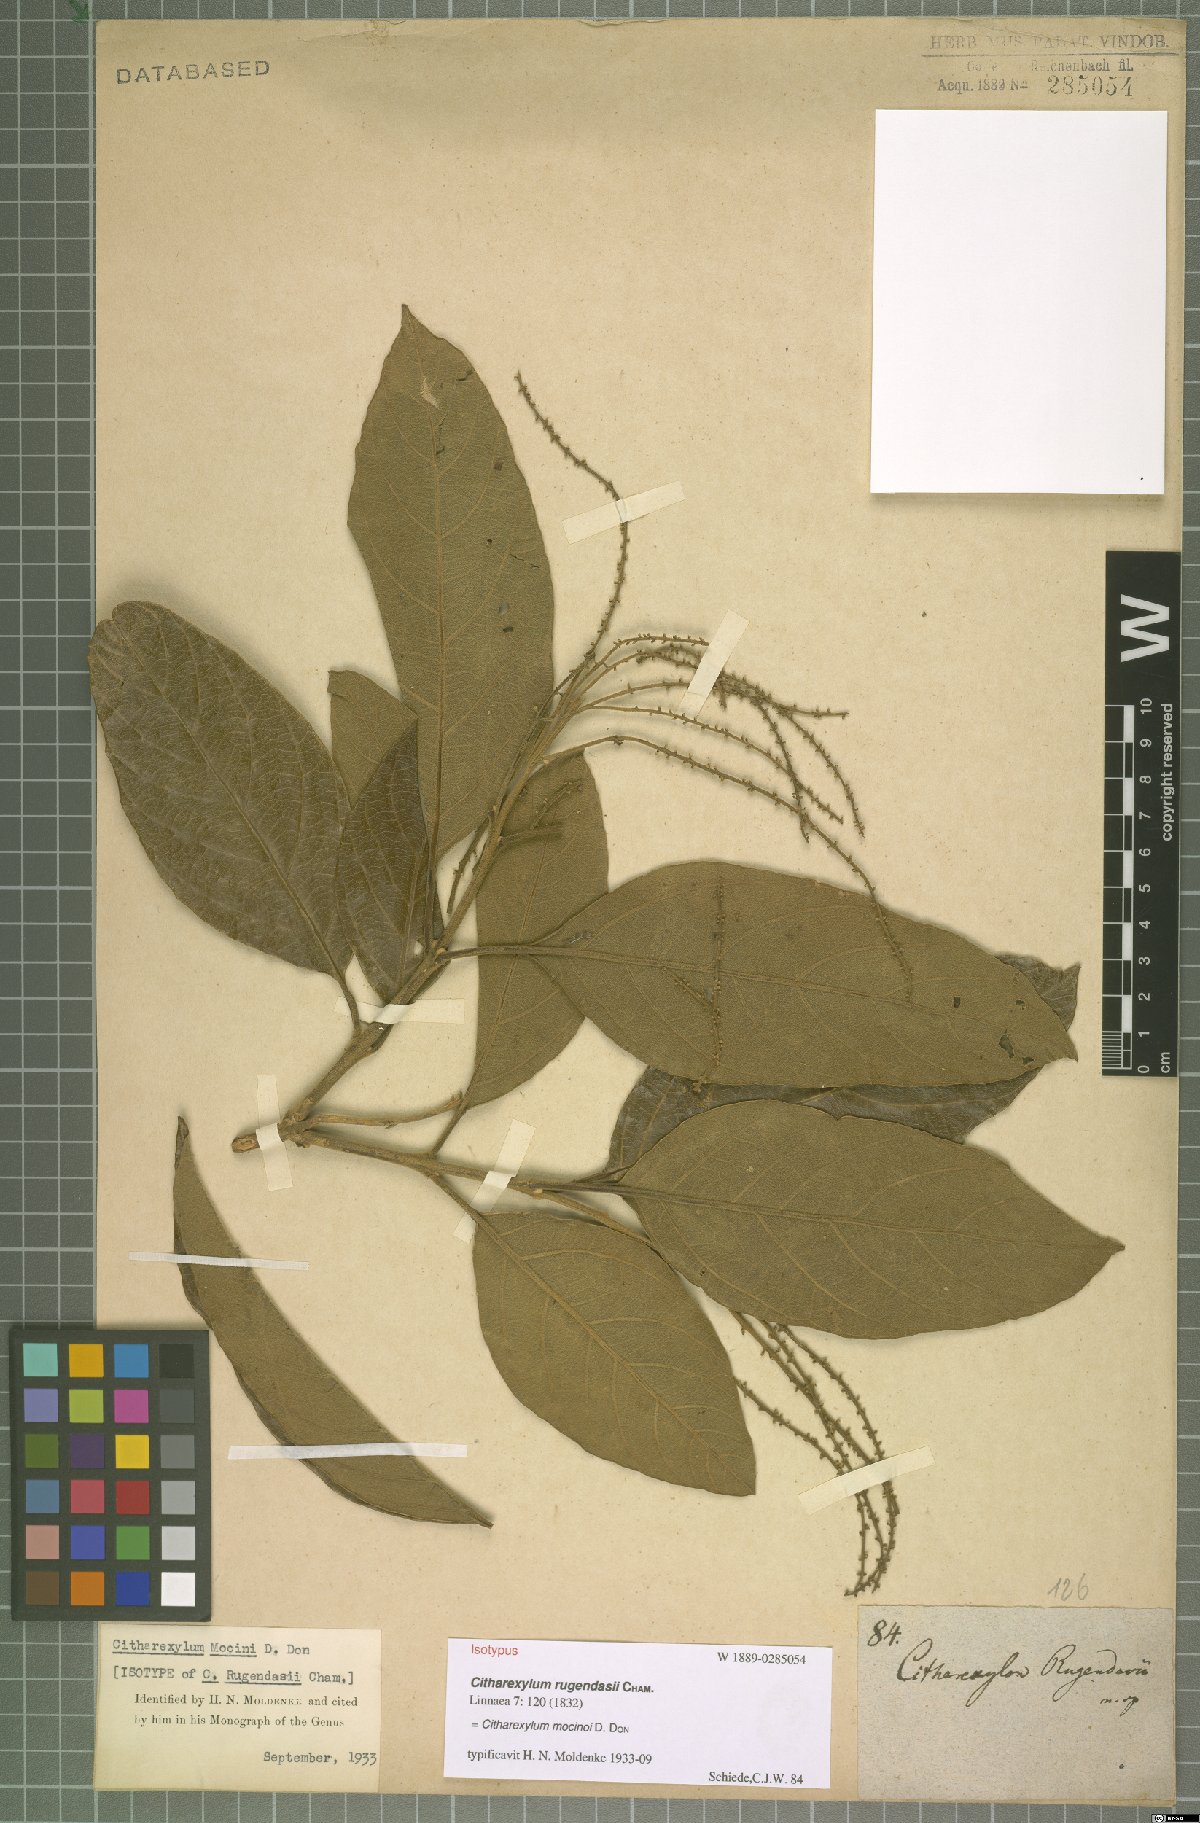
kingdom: Plantae
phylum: Tracheophyta
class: Magnoliopsida
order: Lamiales
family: Verbenaceae
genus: Citharexylum
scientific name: Citharexylum mocinoi
